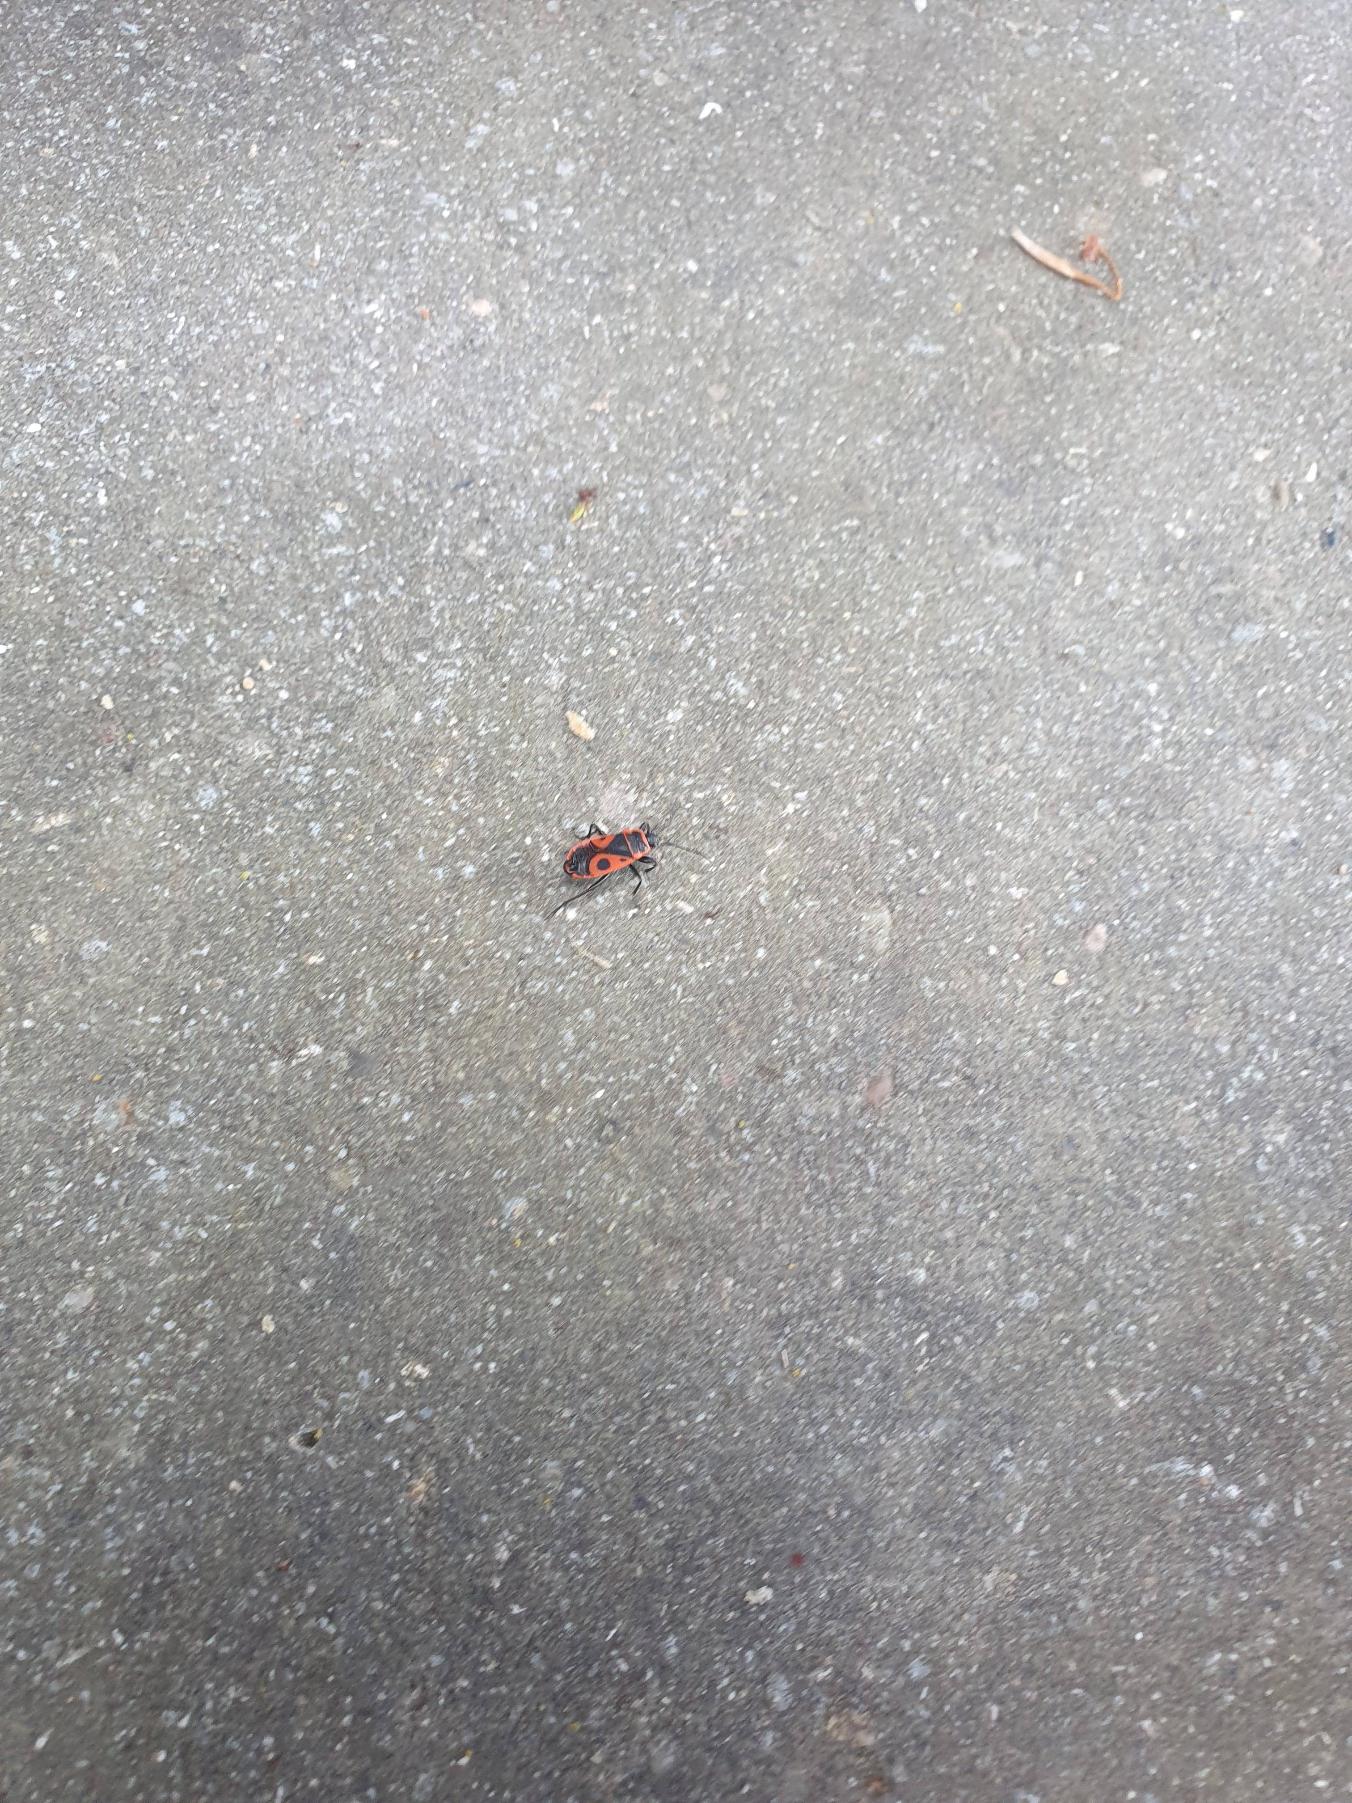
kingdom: Animalia
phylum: Arthropoda
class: Insecta
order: Hemiptera
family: Pyrrhocoridae
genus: Pyrrhocoris
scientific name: Pyrrhocoris apterus
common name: Ildtæge
